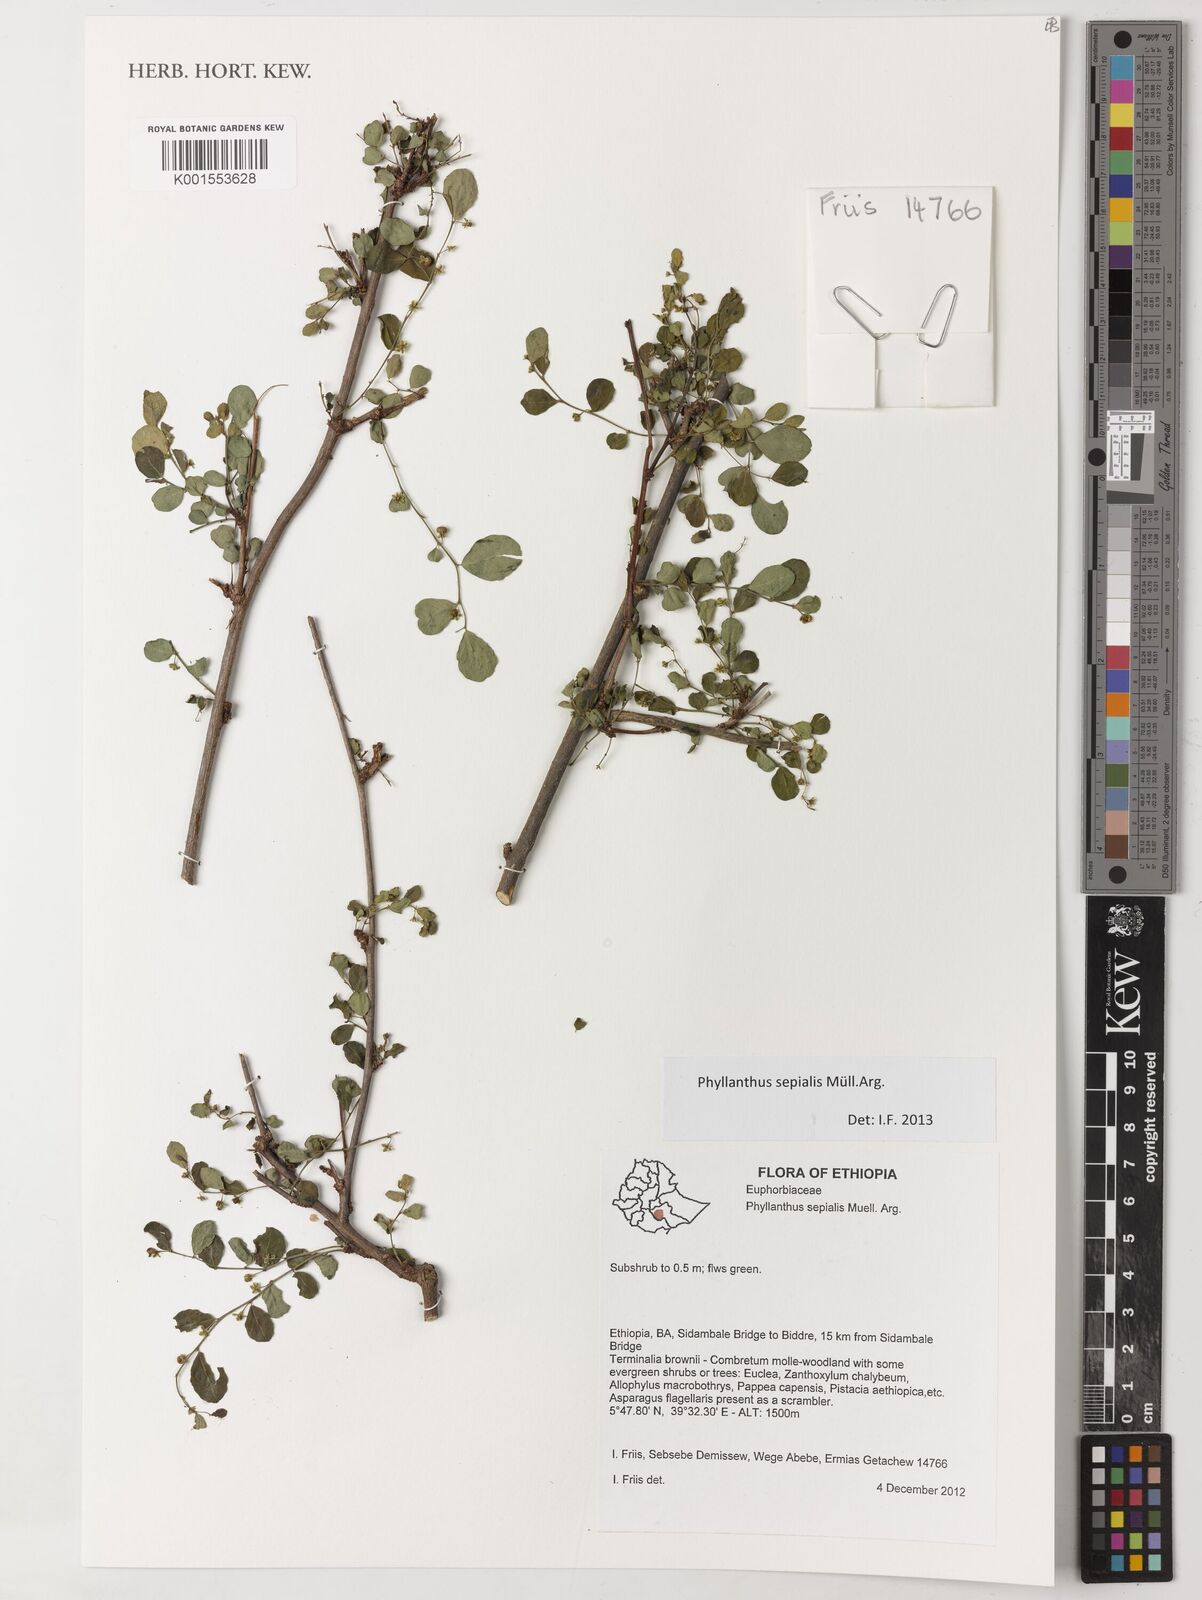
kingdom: Plantae
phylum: Tracheophyta
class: Magnoliopsida
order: Malpighiales
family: Phyllanthaceae
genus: Phyllanthus
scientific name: Phyllanthus sepialis
